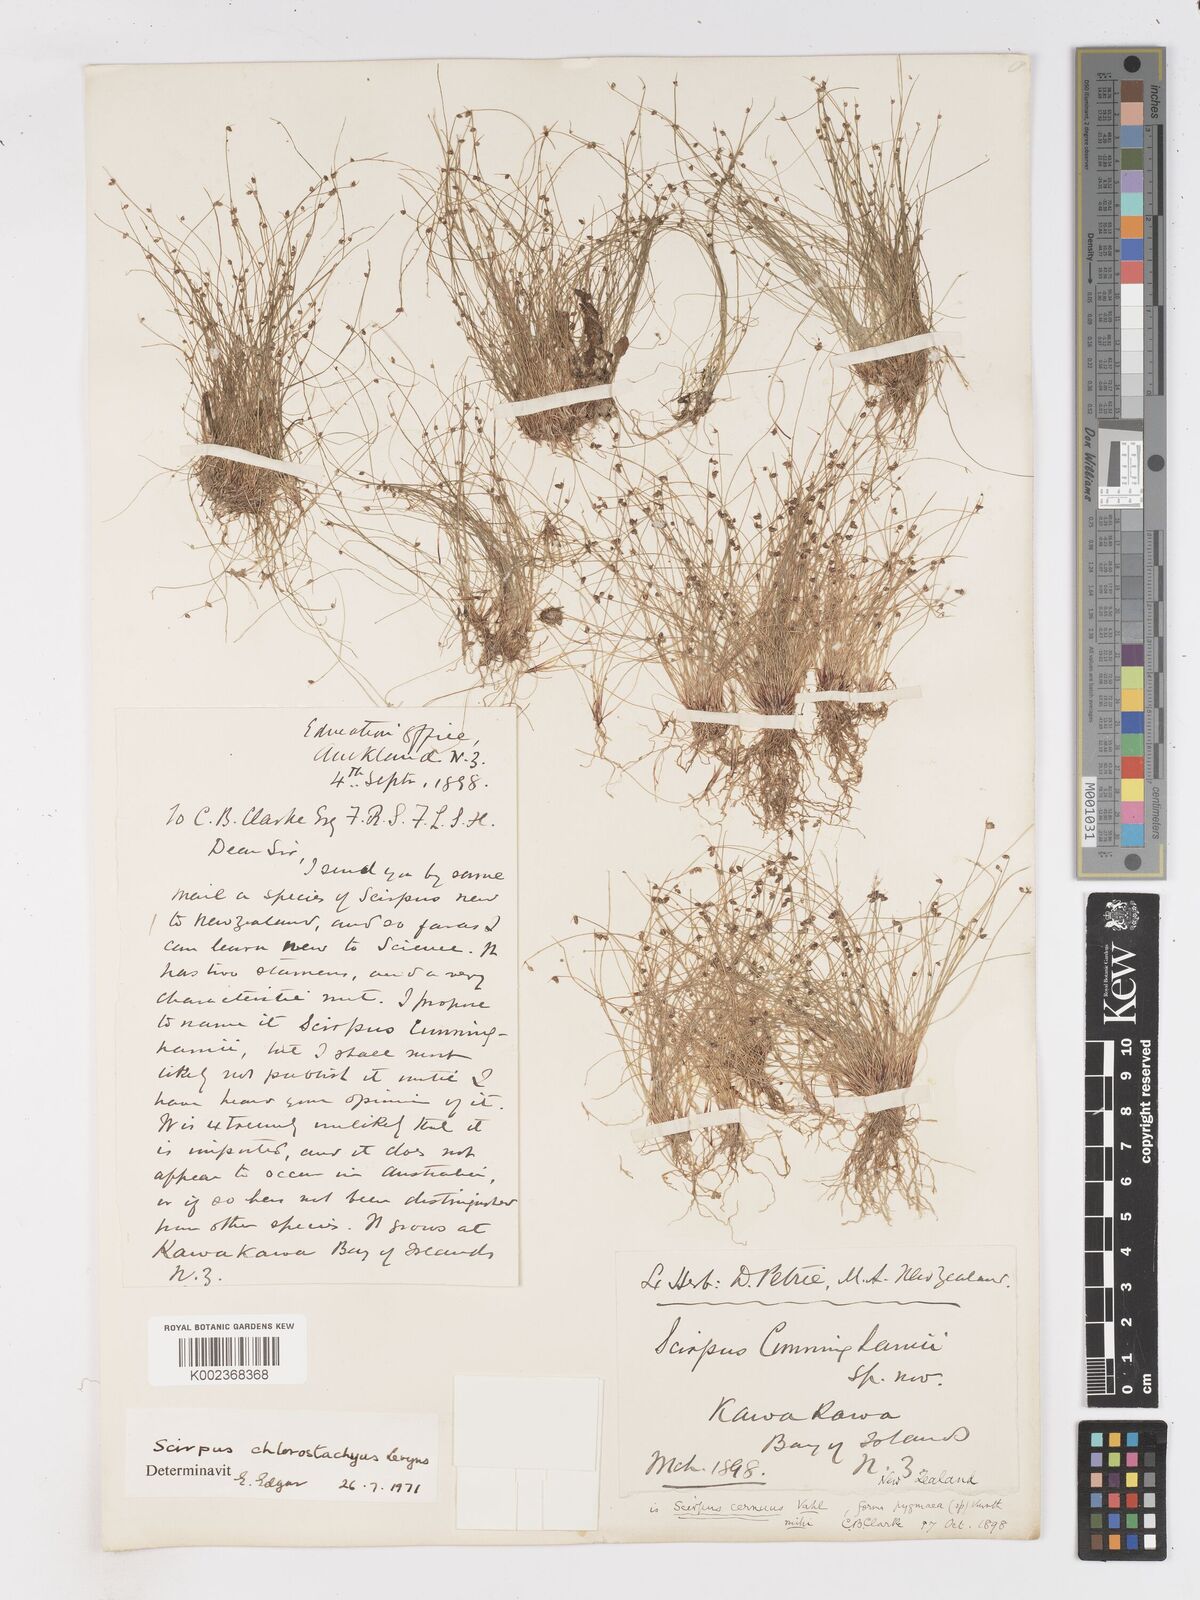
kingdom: Plantae
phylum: Tracheophyta
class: Liliopsida
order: Poales
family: Cyperaceae
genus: Isolepis
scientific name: Isolepis sepulcralis
